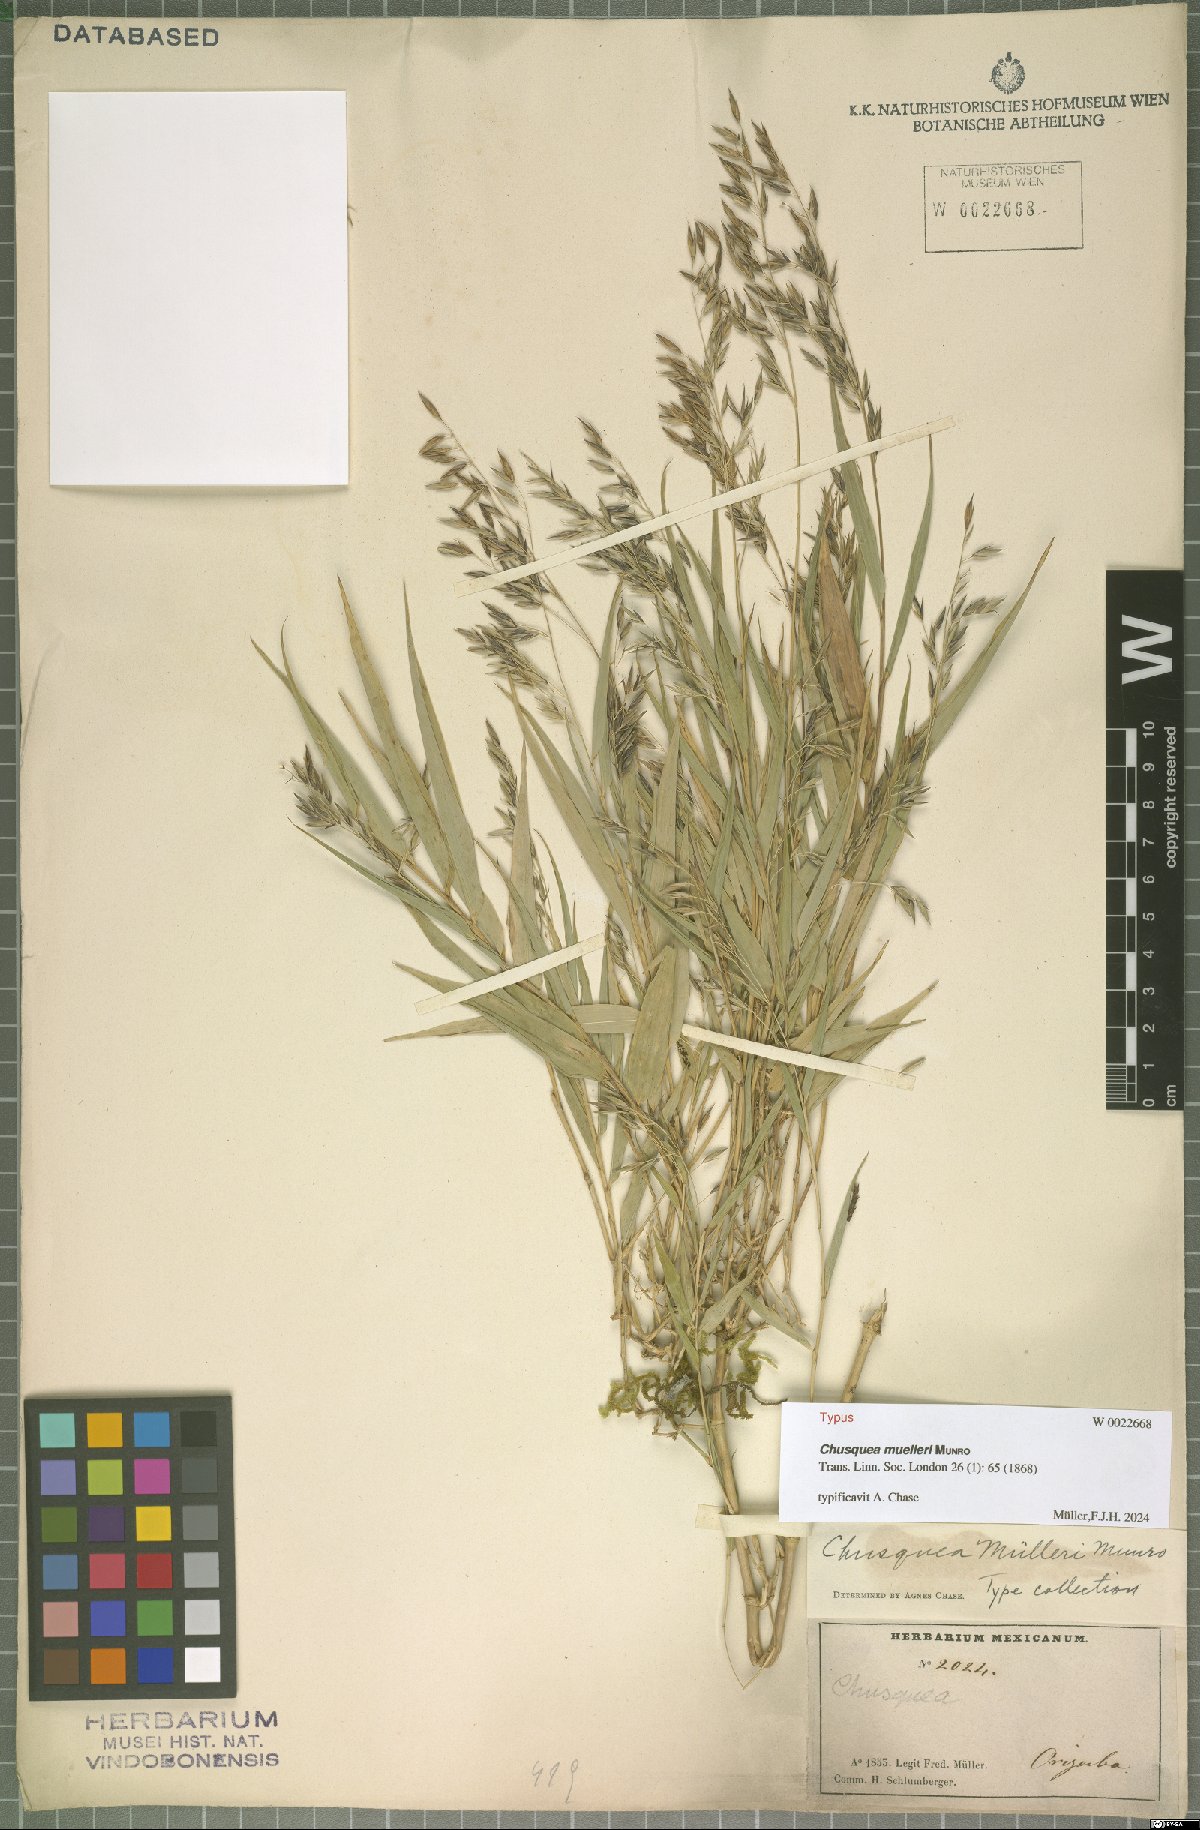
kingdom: Plantae
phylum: Tracheophyta
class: Liliopsida
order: Poales
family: Poaceae
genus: Chusquea
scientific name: Chusquea mulleri
